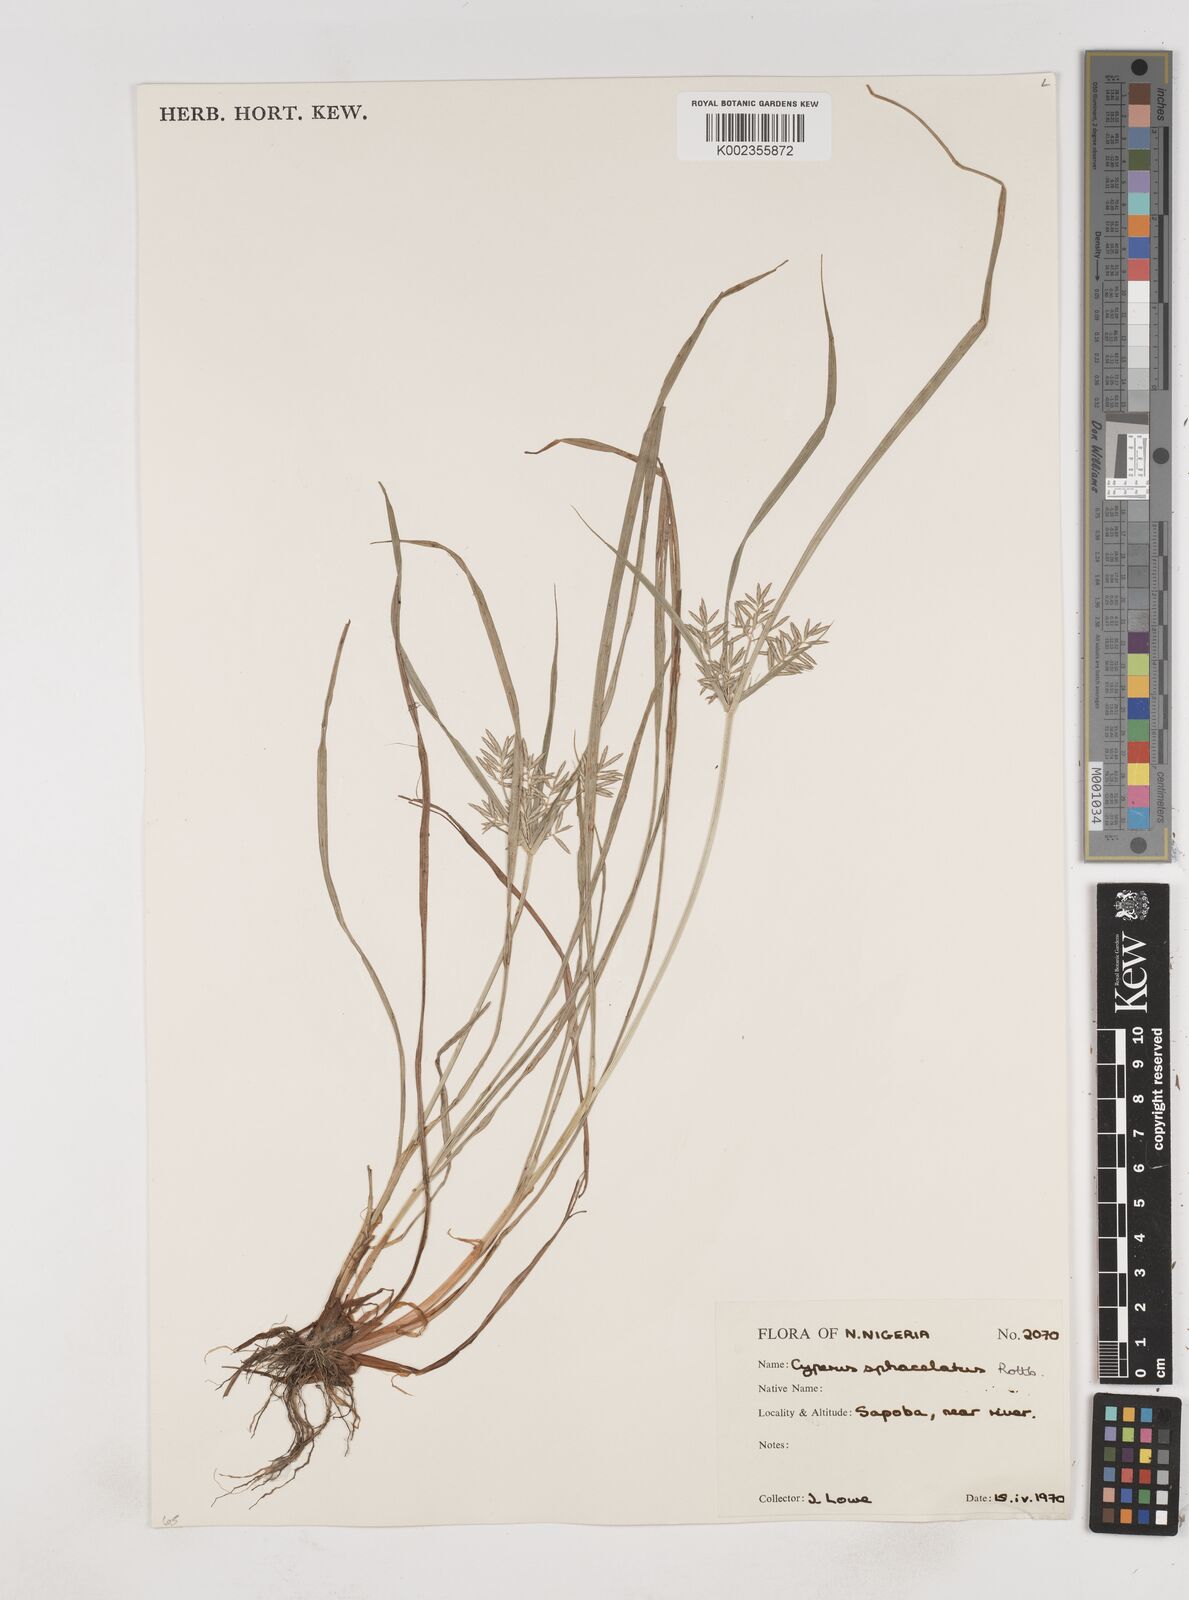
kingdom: Plantae
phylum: Tracheophyta
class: Liliopsida
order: Poales
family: Cyperaceae
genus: Cyperus
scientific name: Cyperus sphacelatus
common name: Roadside flatsedge
